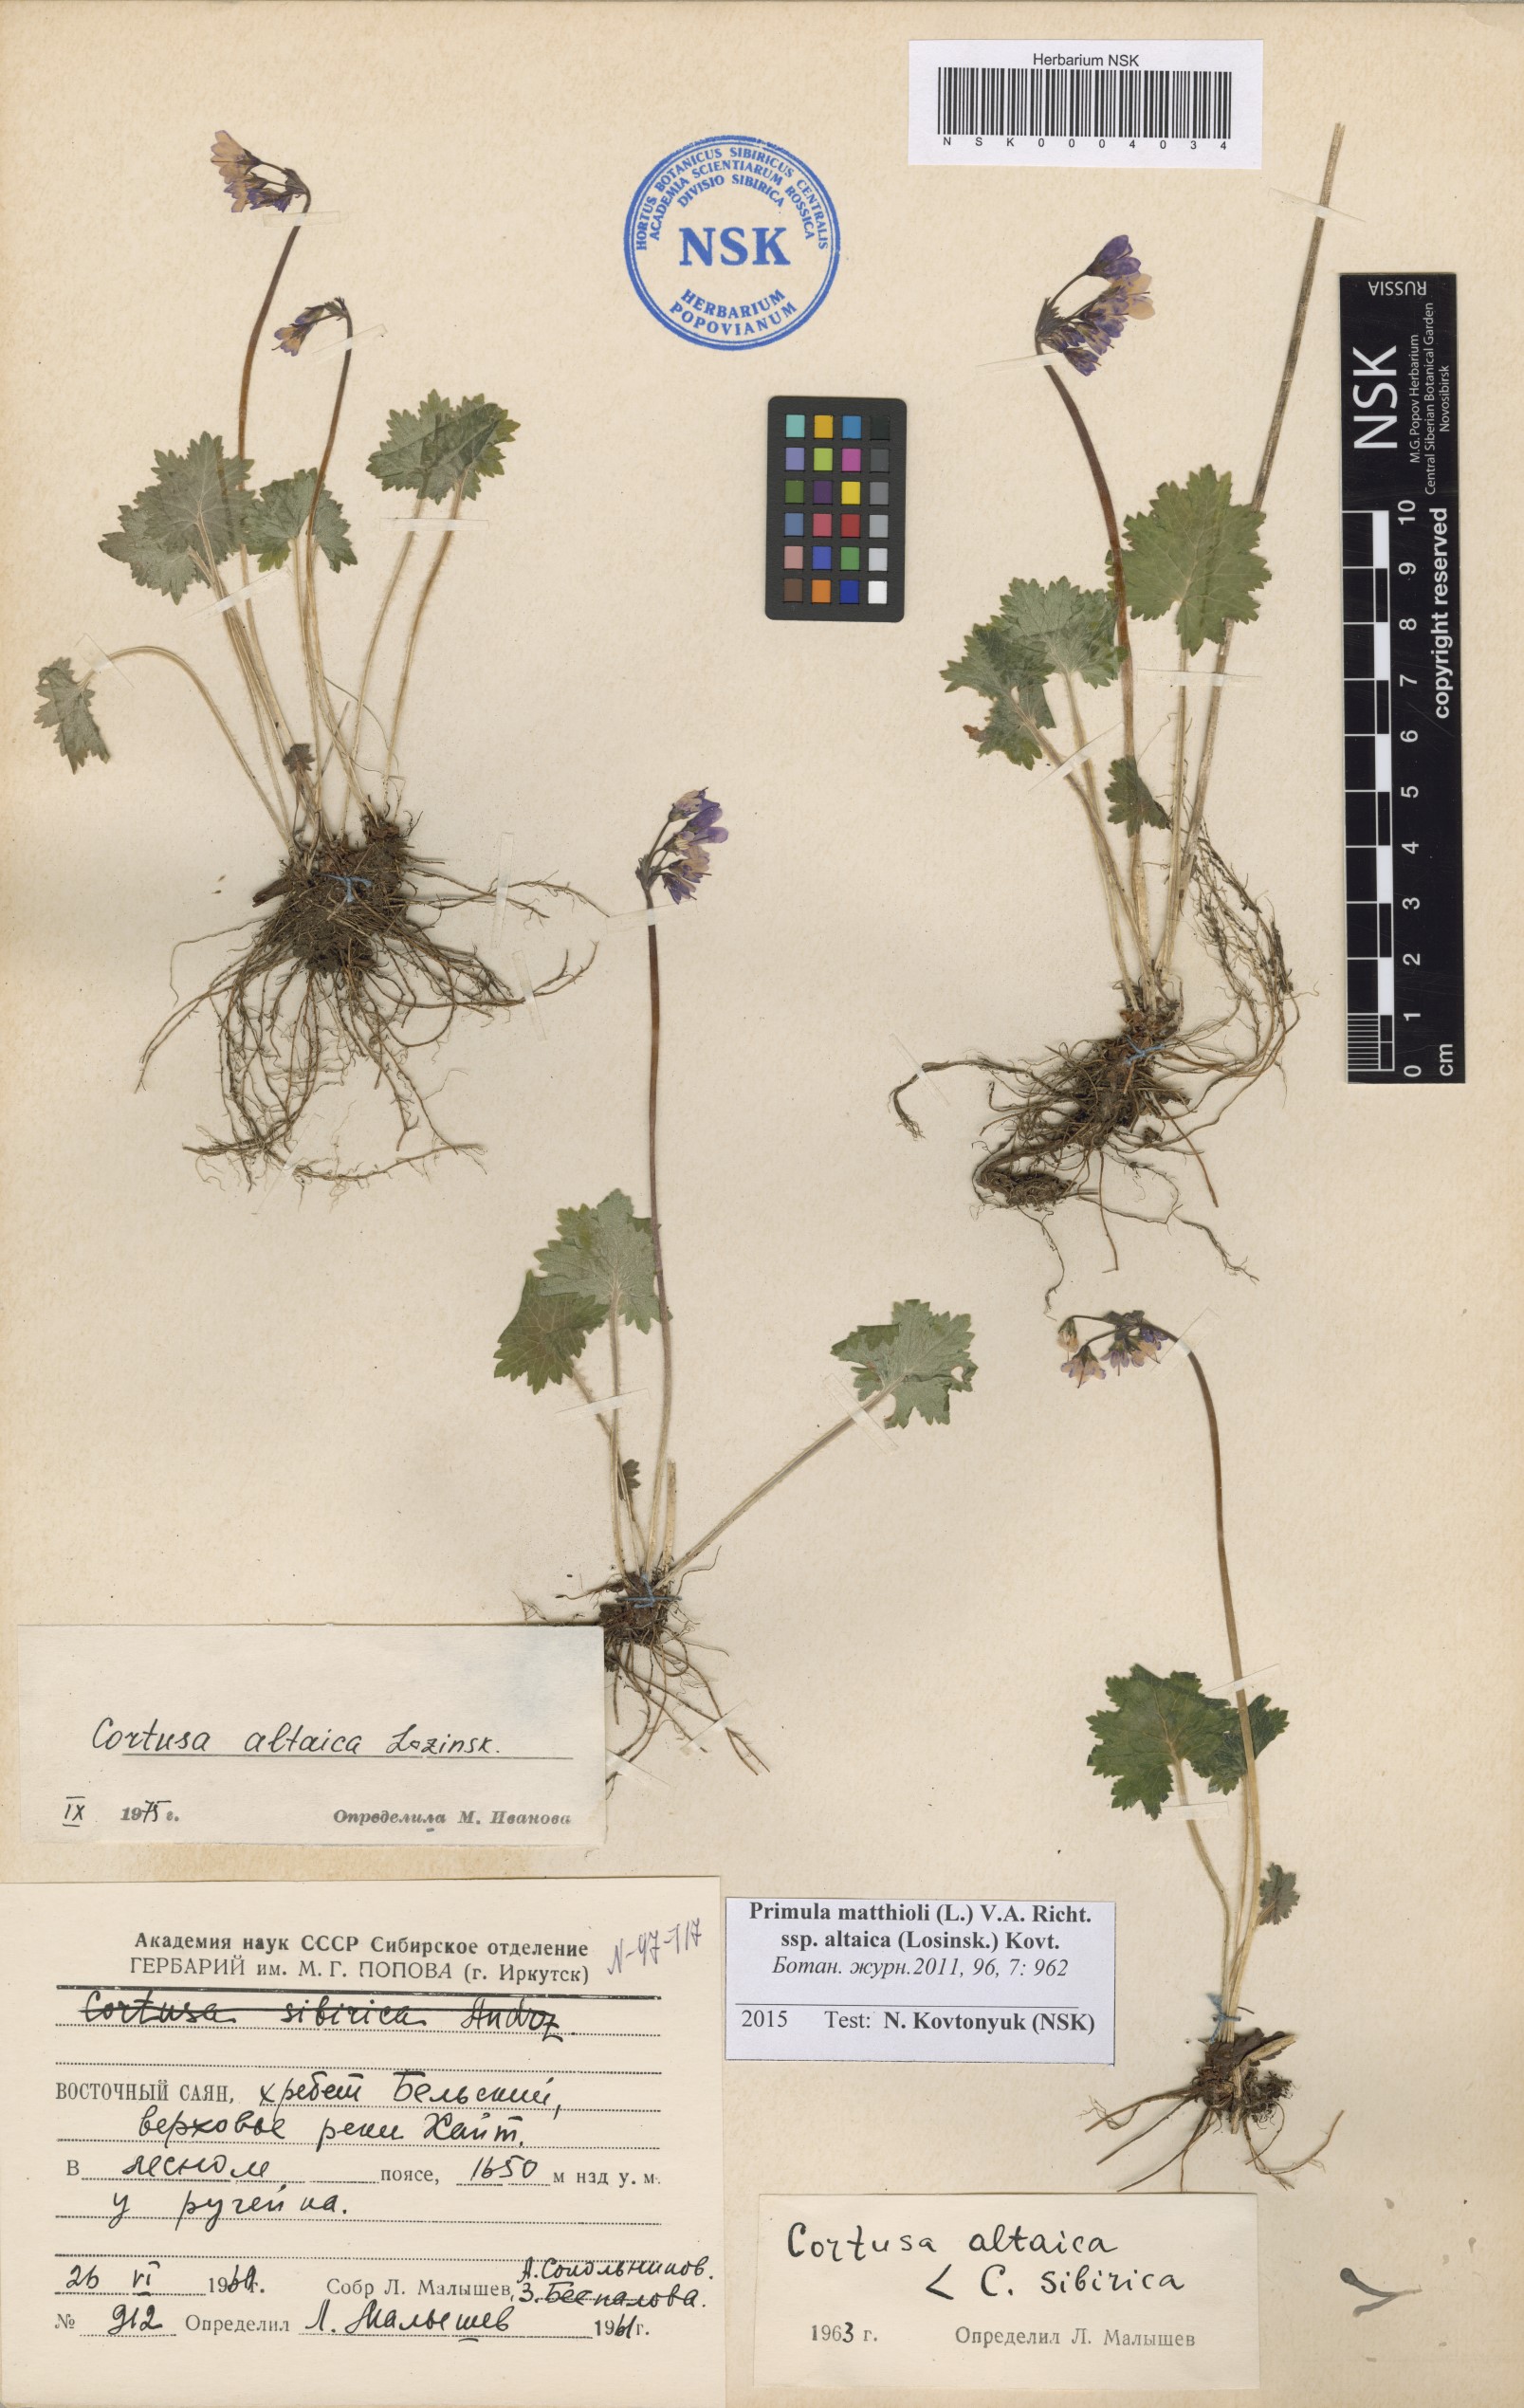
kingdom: Plantae
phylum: Tracheophyta
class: Magnoliopsida
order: Ericales
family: Primulaceae
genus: Primula
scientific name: Primula matthioli
